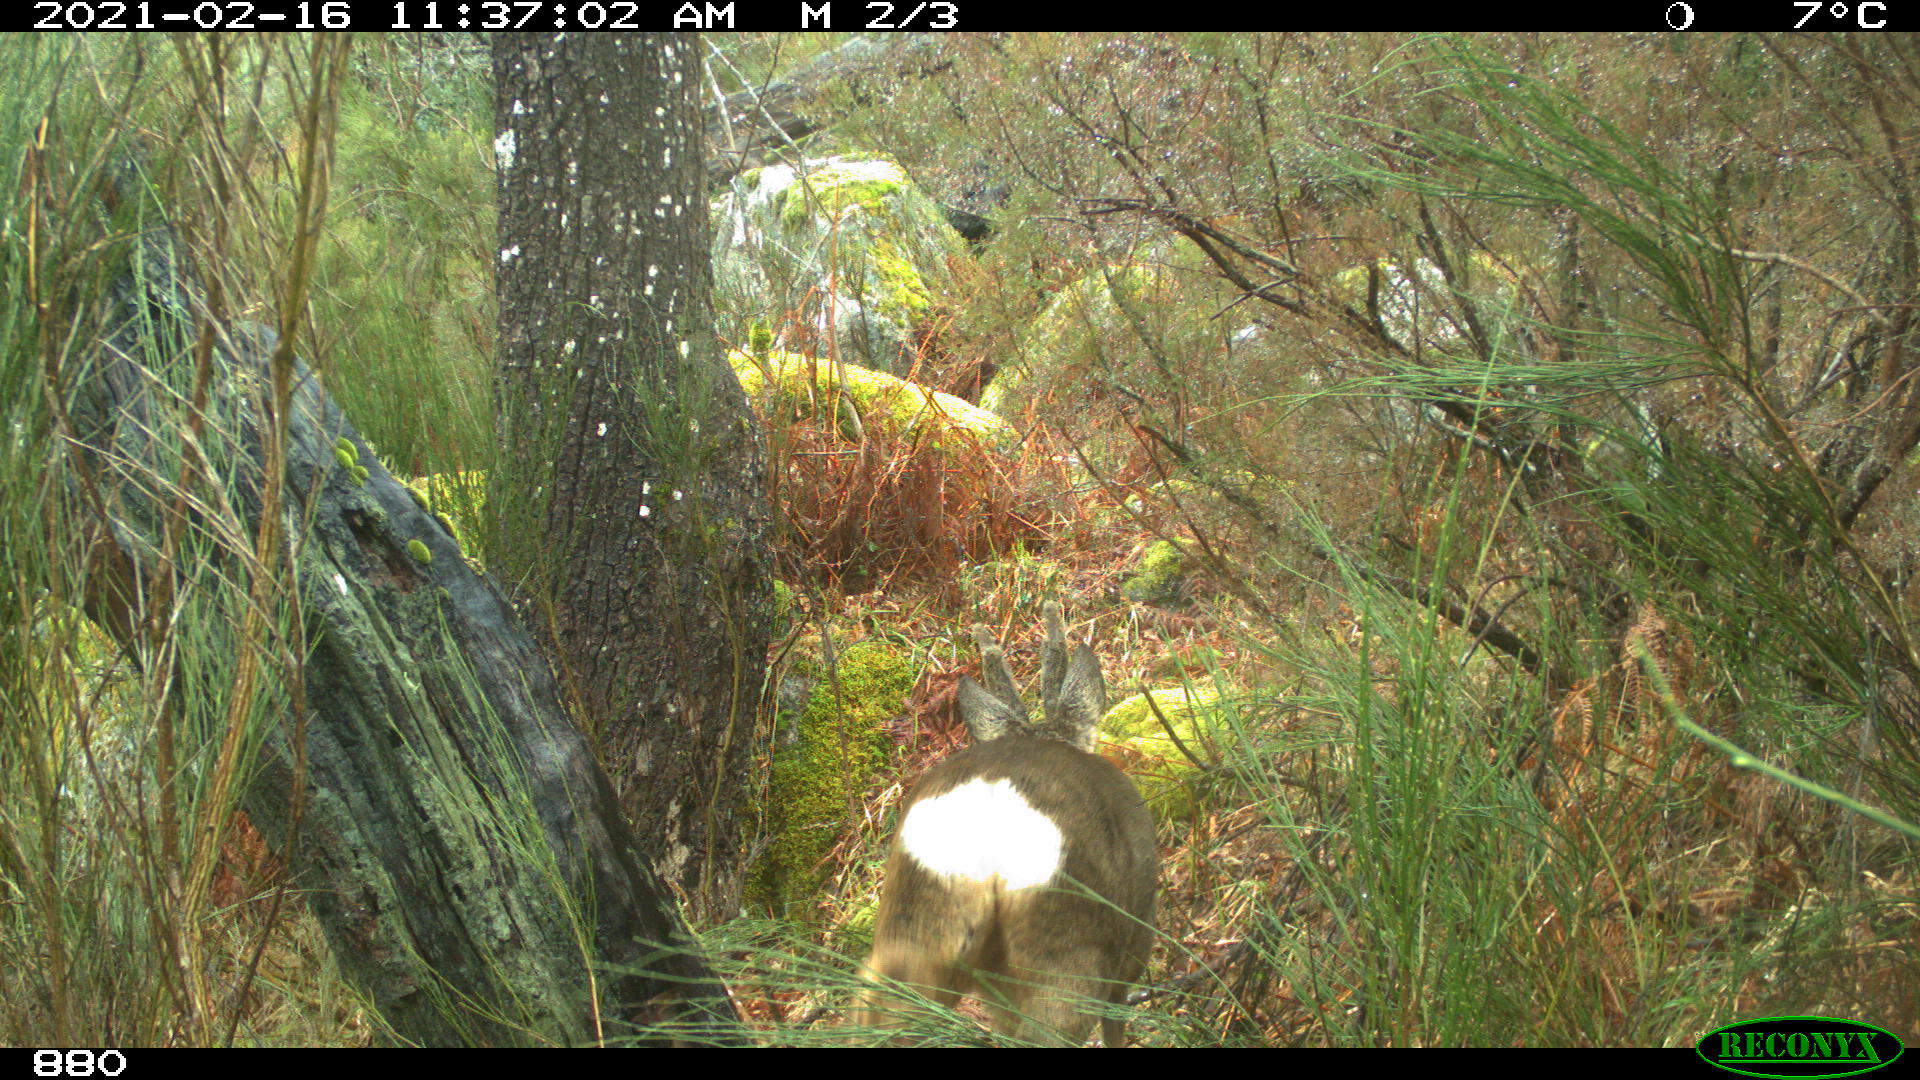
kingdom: Animalia
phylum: Chordata
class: Mammalia
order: Artiodactyla
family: Cervidae
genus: Capreolus
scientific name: Capreolus capreolus
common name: Western roe deer
